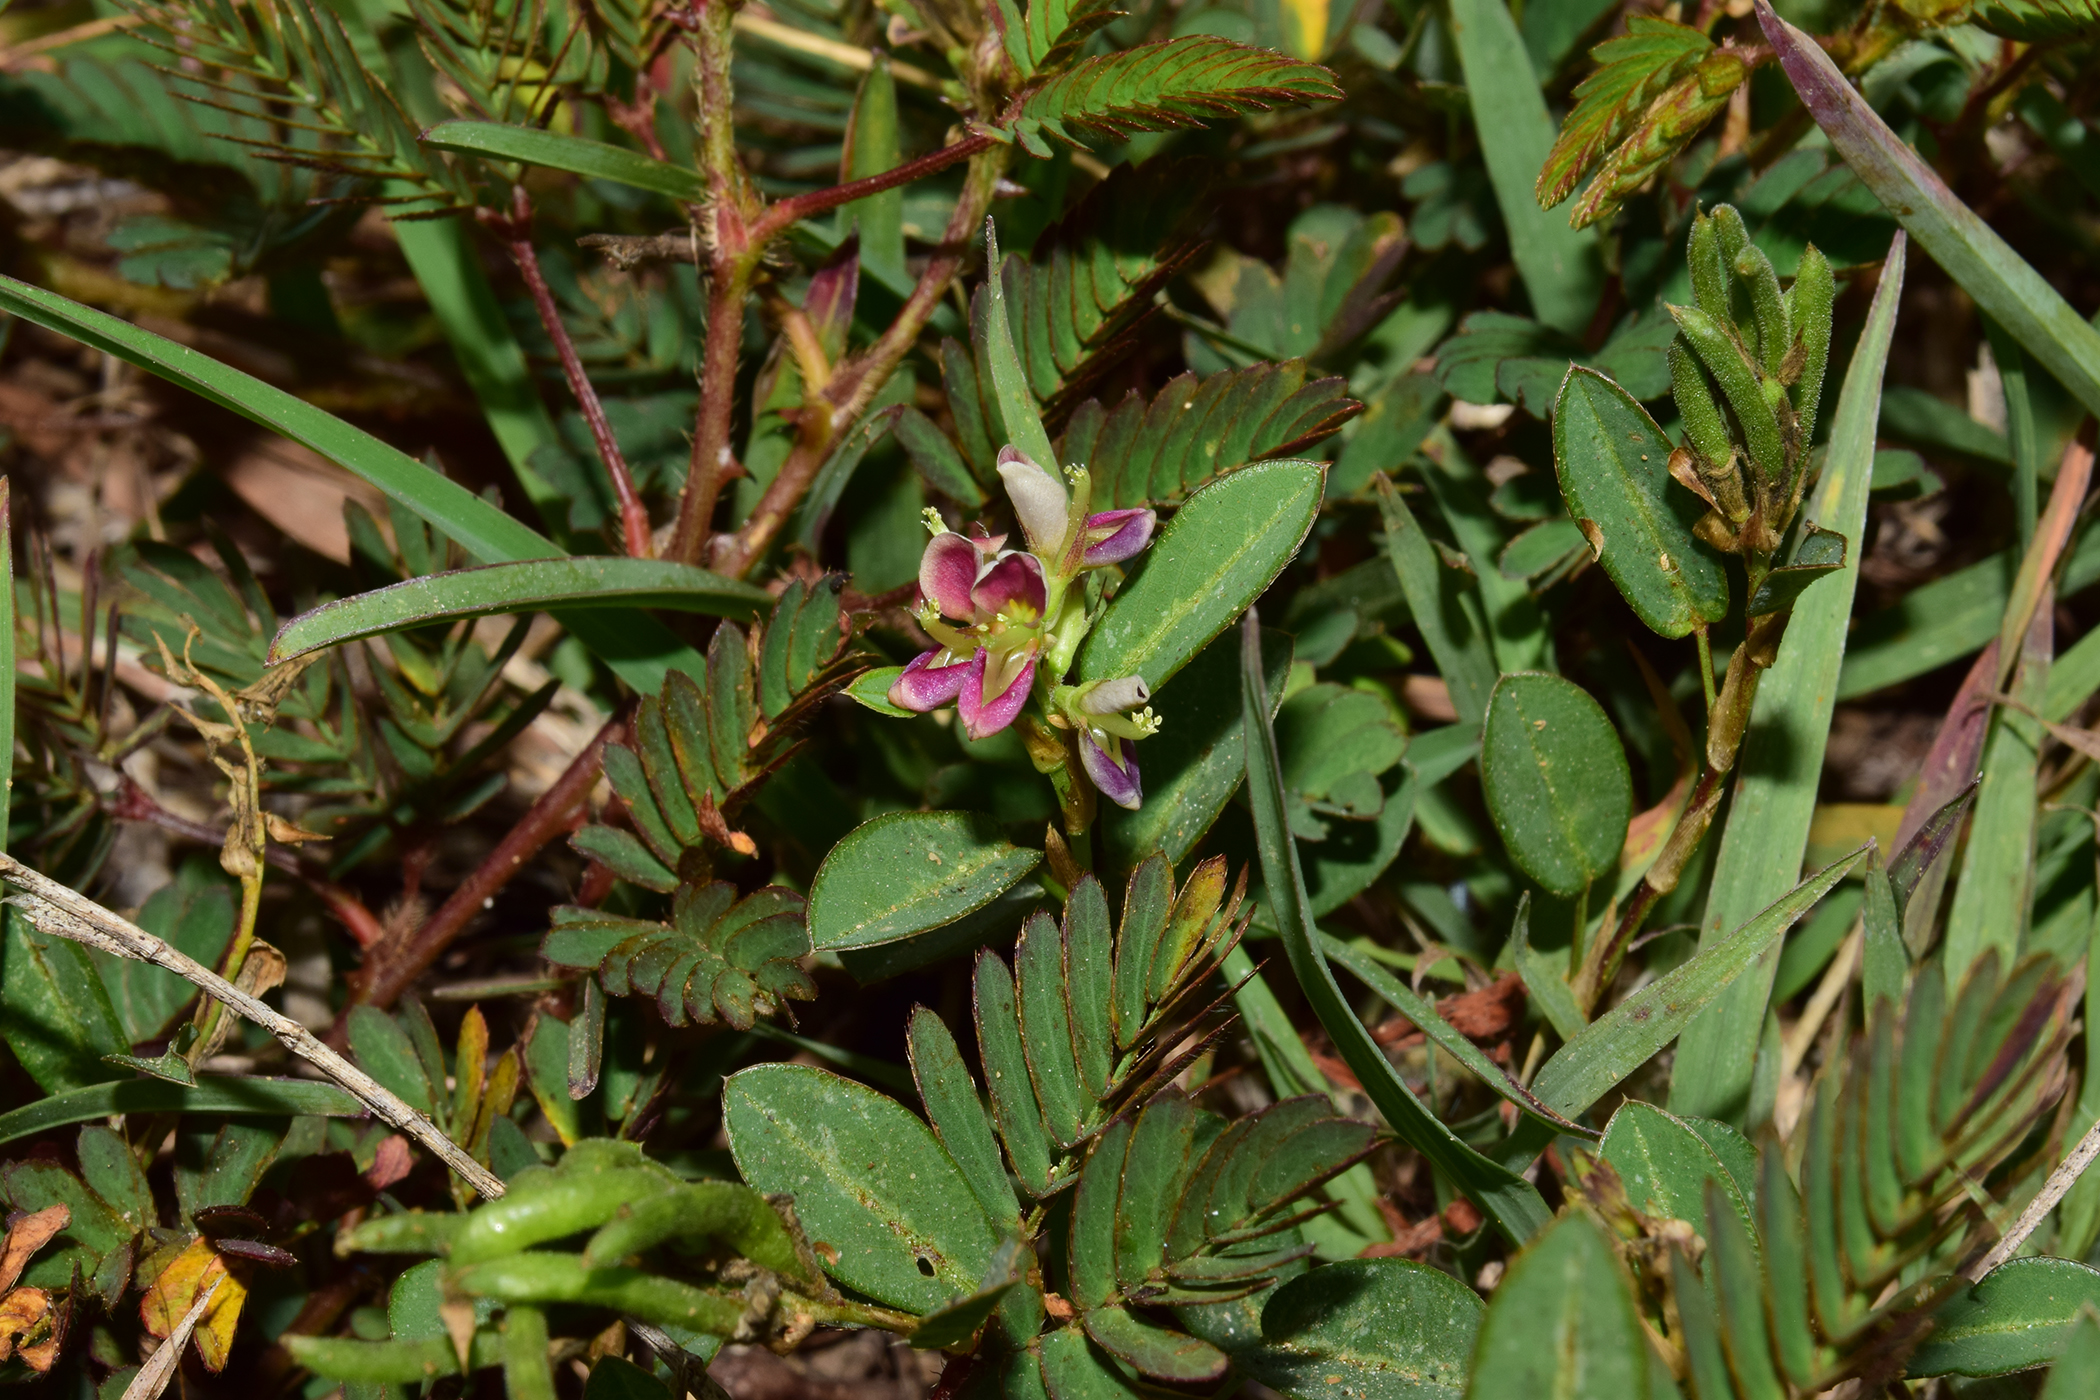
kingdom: Plantae
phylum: Tracheophyta
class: Magnoliopsida
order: Fabales
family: Fabaceae
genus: Alysicarpus
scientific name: Alysicarpus vaginalis
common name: White moneywort
